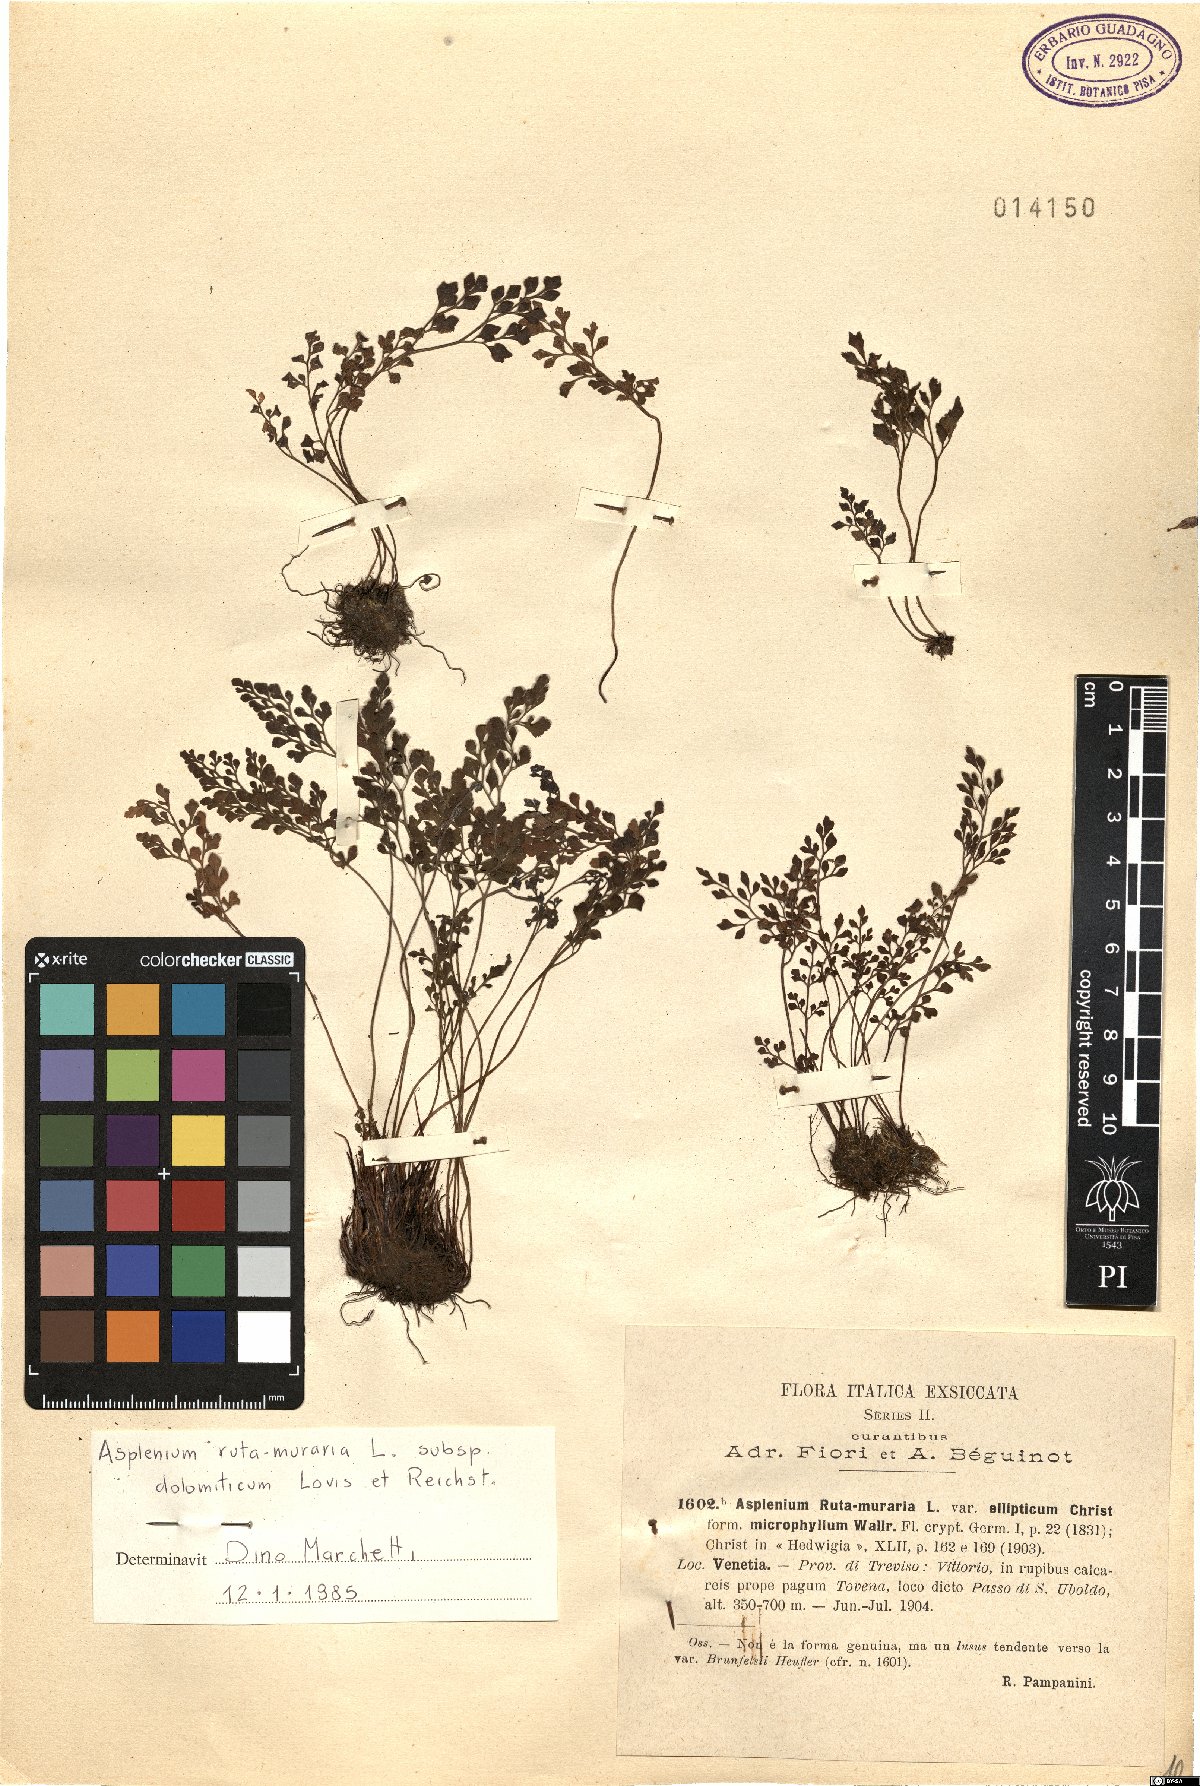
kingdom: Plantae
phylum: Tracheophyta
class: Polypodiopsida
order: Polypodiales
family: Aspleniaceae
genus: Asplenium
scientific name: Asplenium ruta-muraria
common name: Wall-rue
